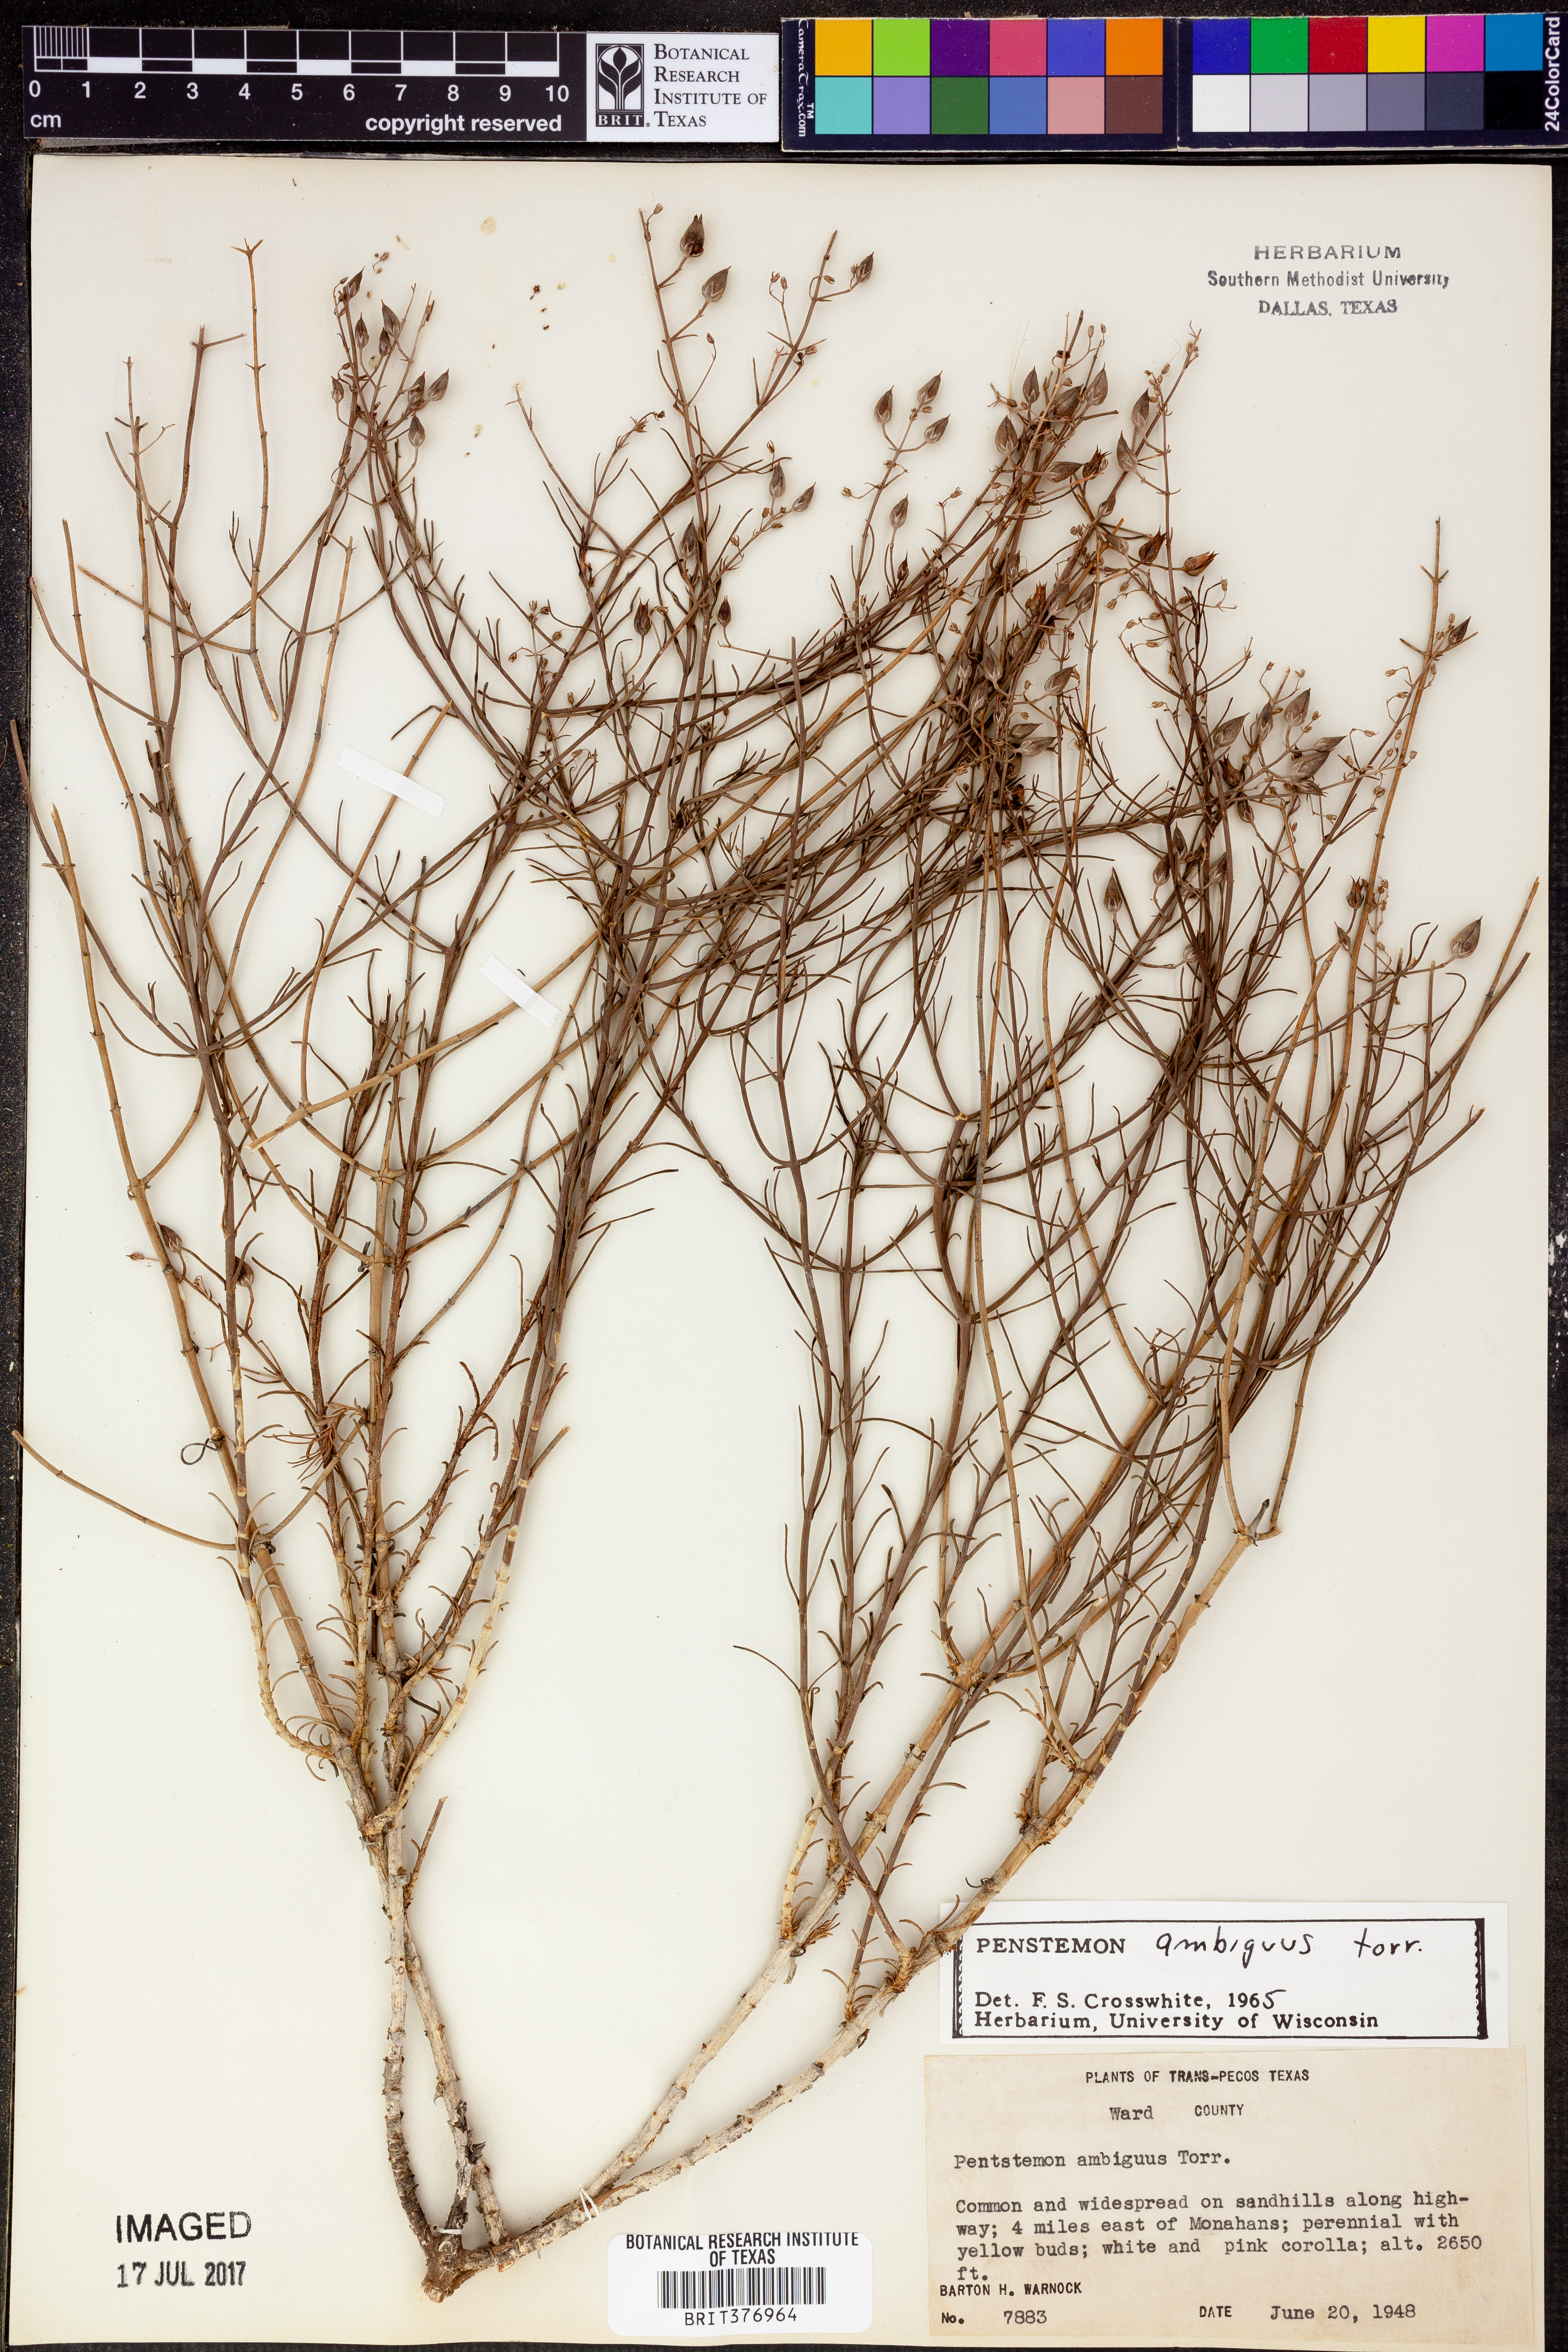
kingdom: Plantae
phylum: Tracheophyta
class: Magnoliopsida
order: Lamiales
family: Plantaginaceae
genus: Penstemon
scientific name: Penstemon ambiguus
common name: Bush penstemon
